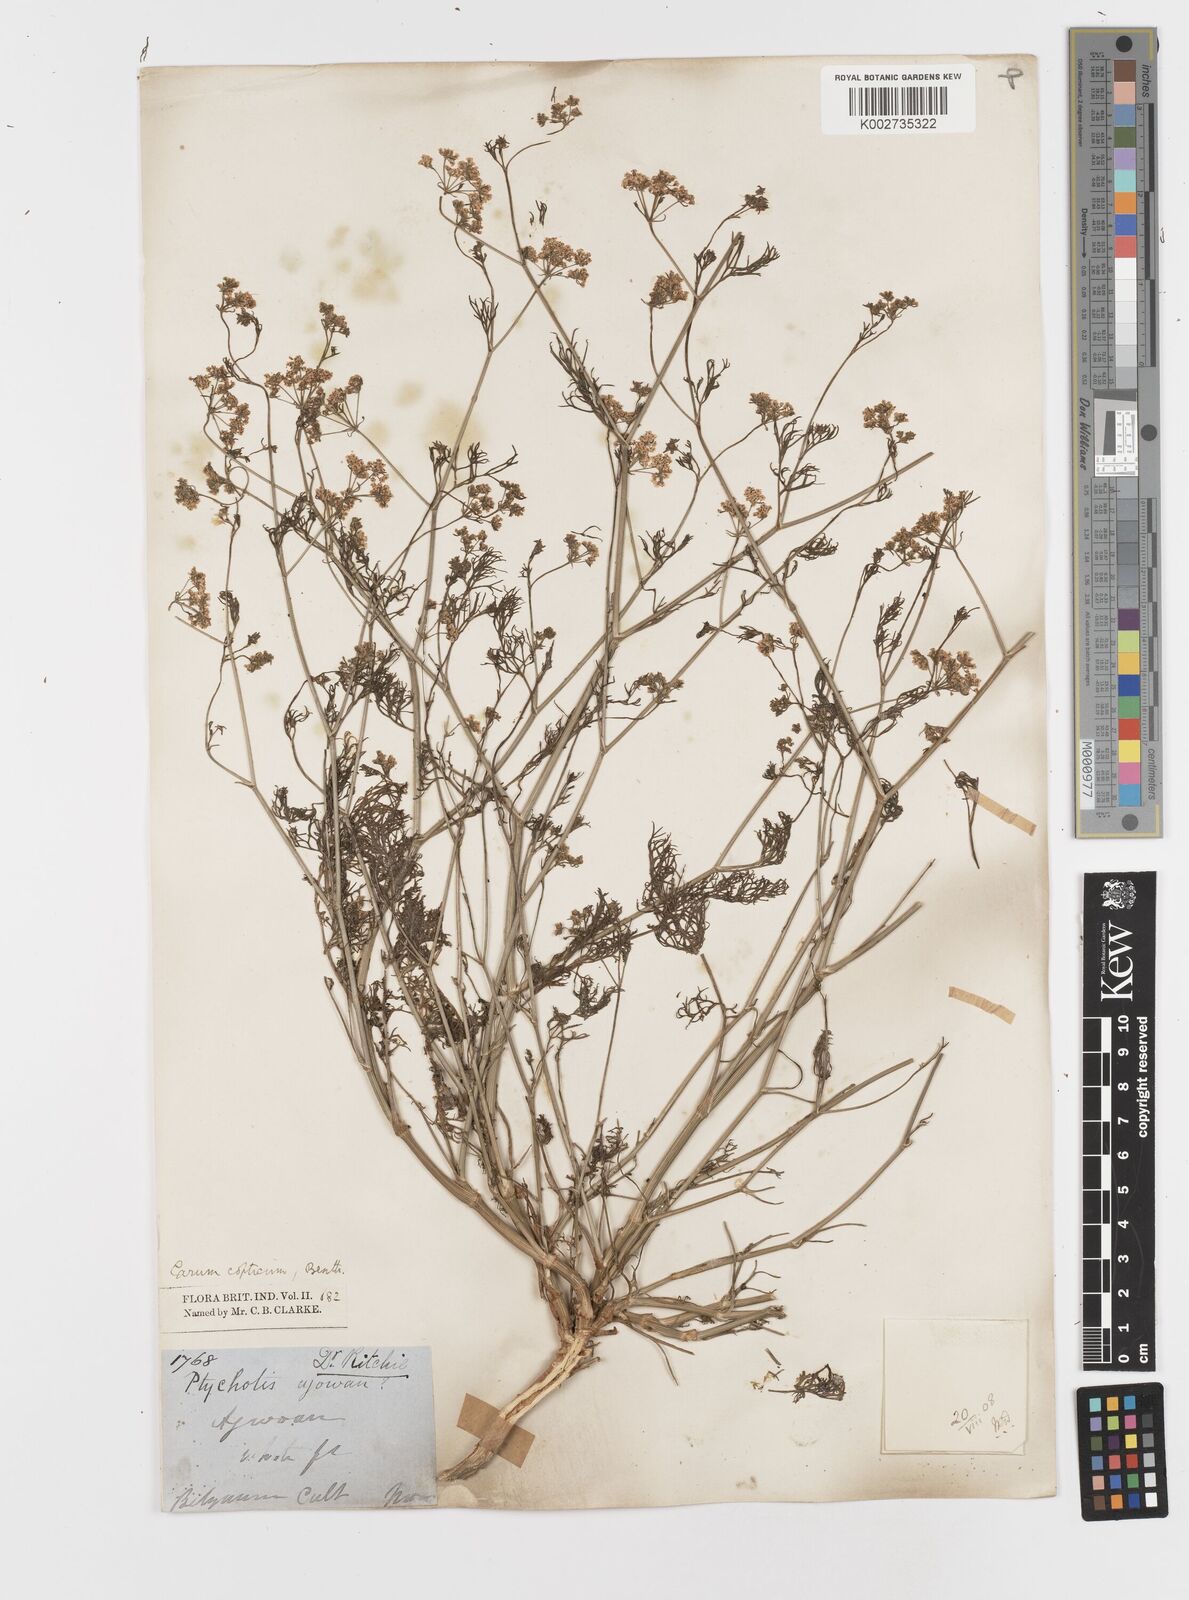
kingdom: Plantae
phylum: Tracheophyta
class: Magnoliopsida
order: Apiales
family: Apiaceae
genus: Trachyspermum
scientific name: Trachyspermum ammi
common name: Ajowan
